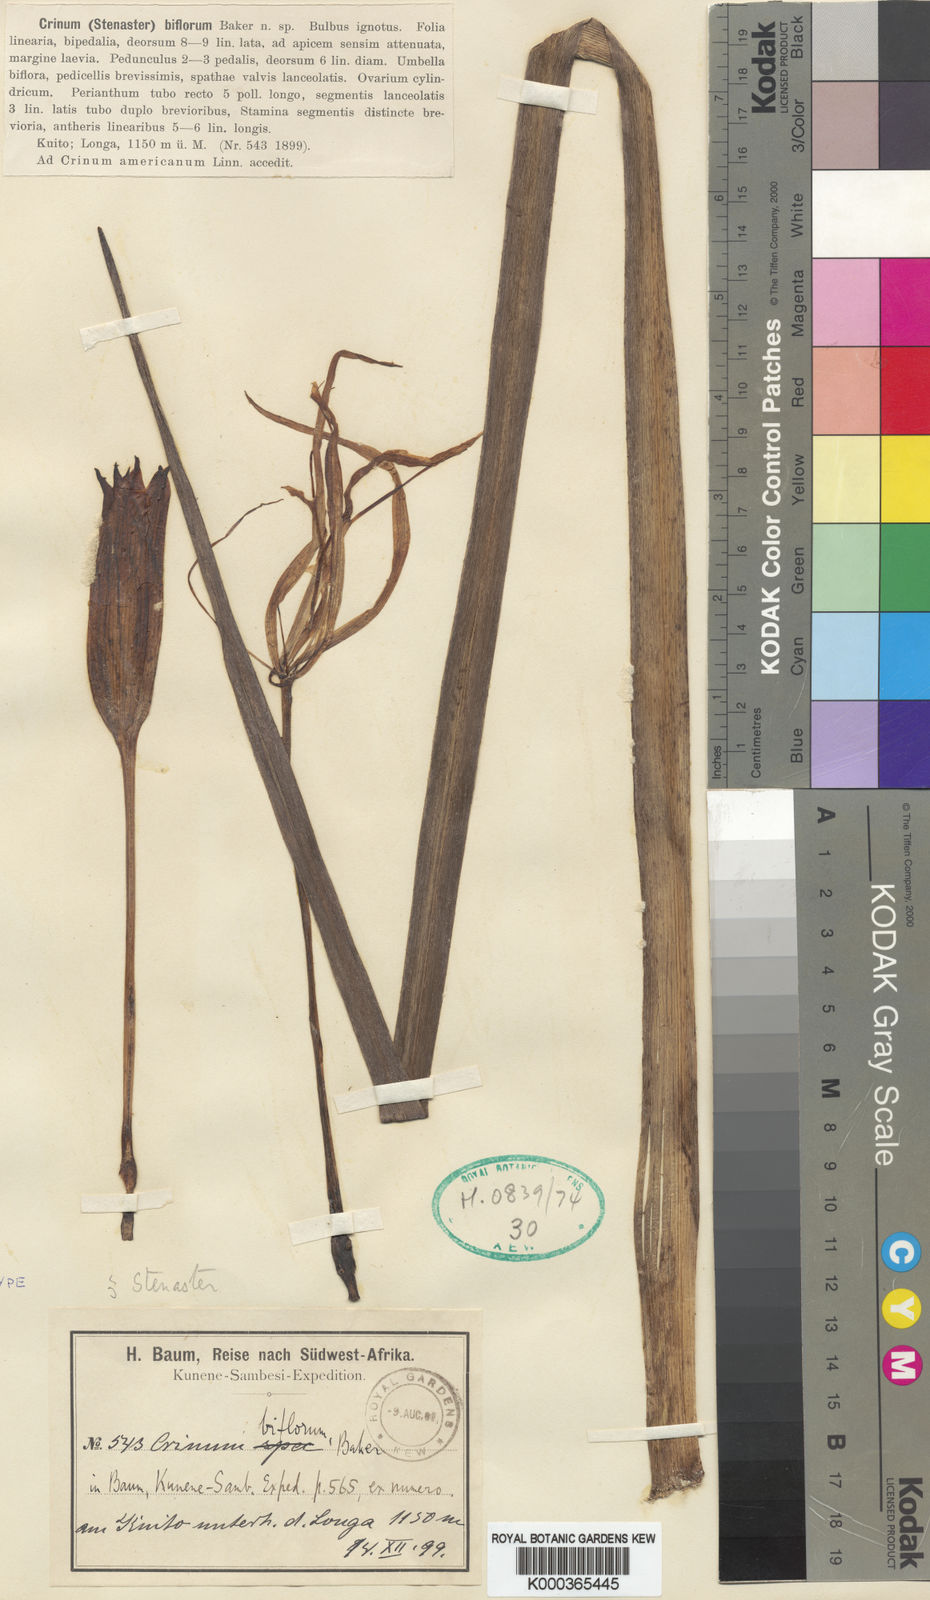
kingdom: Plantae
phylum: Tracheophyta
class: Liliopsida
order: Asparagales
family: Amaryllidaceae
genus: Crinum
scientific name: Crinum nordaliae
